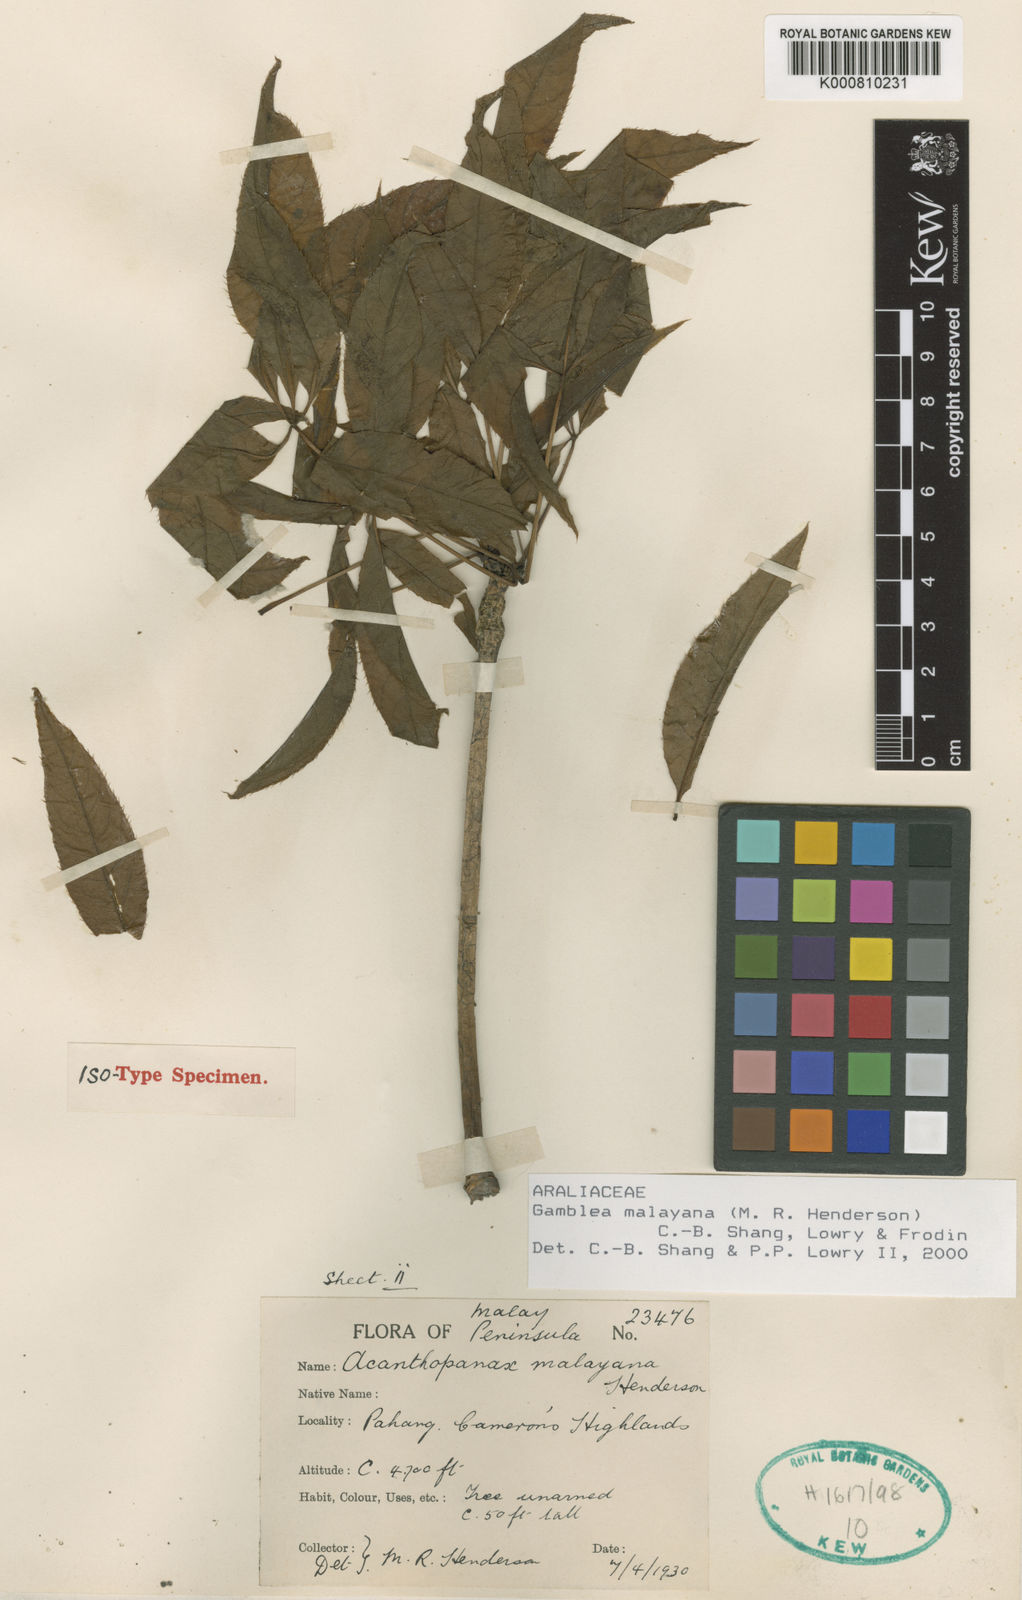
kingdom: Plantae
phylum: Tracheophyta
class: Magnoliopsida
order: Apiales
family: Araliaceae
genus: Gamblea
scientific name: Gamblea malayana
